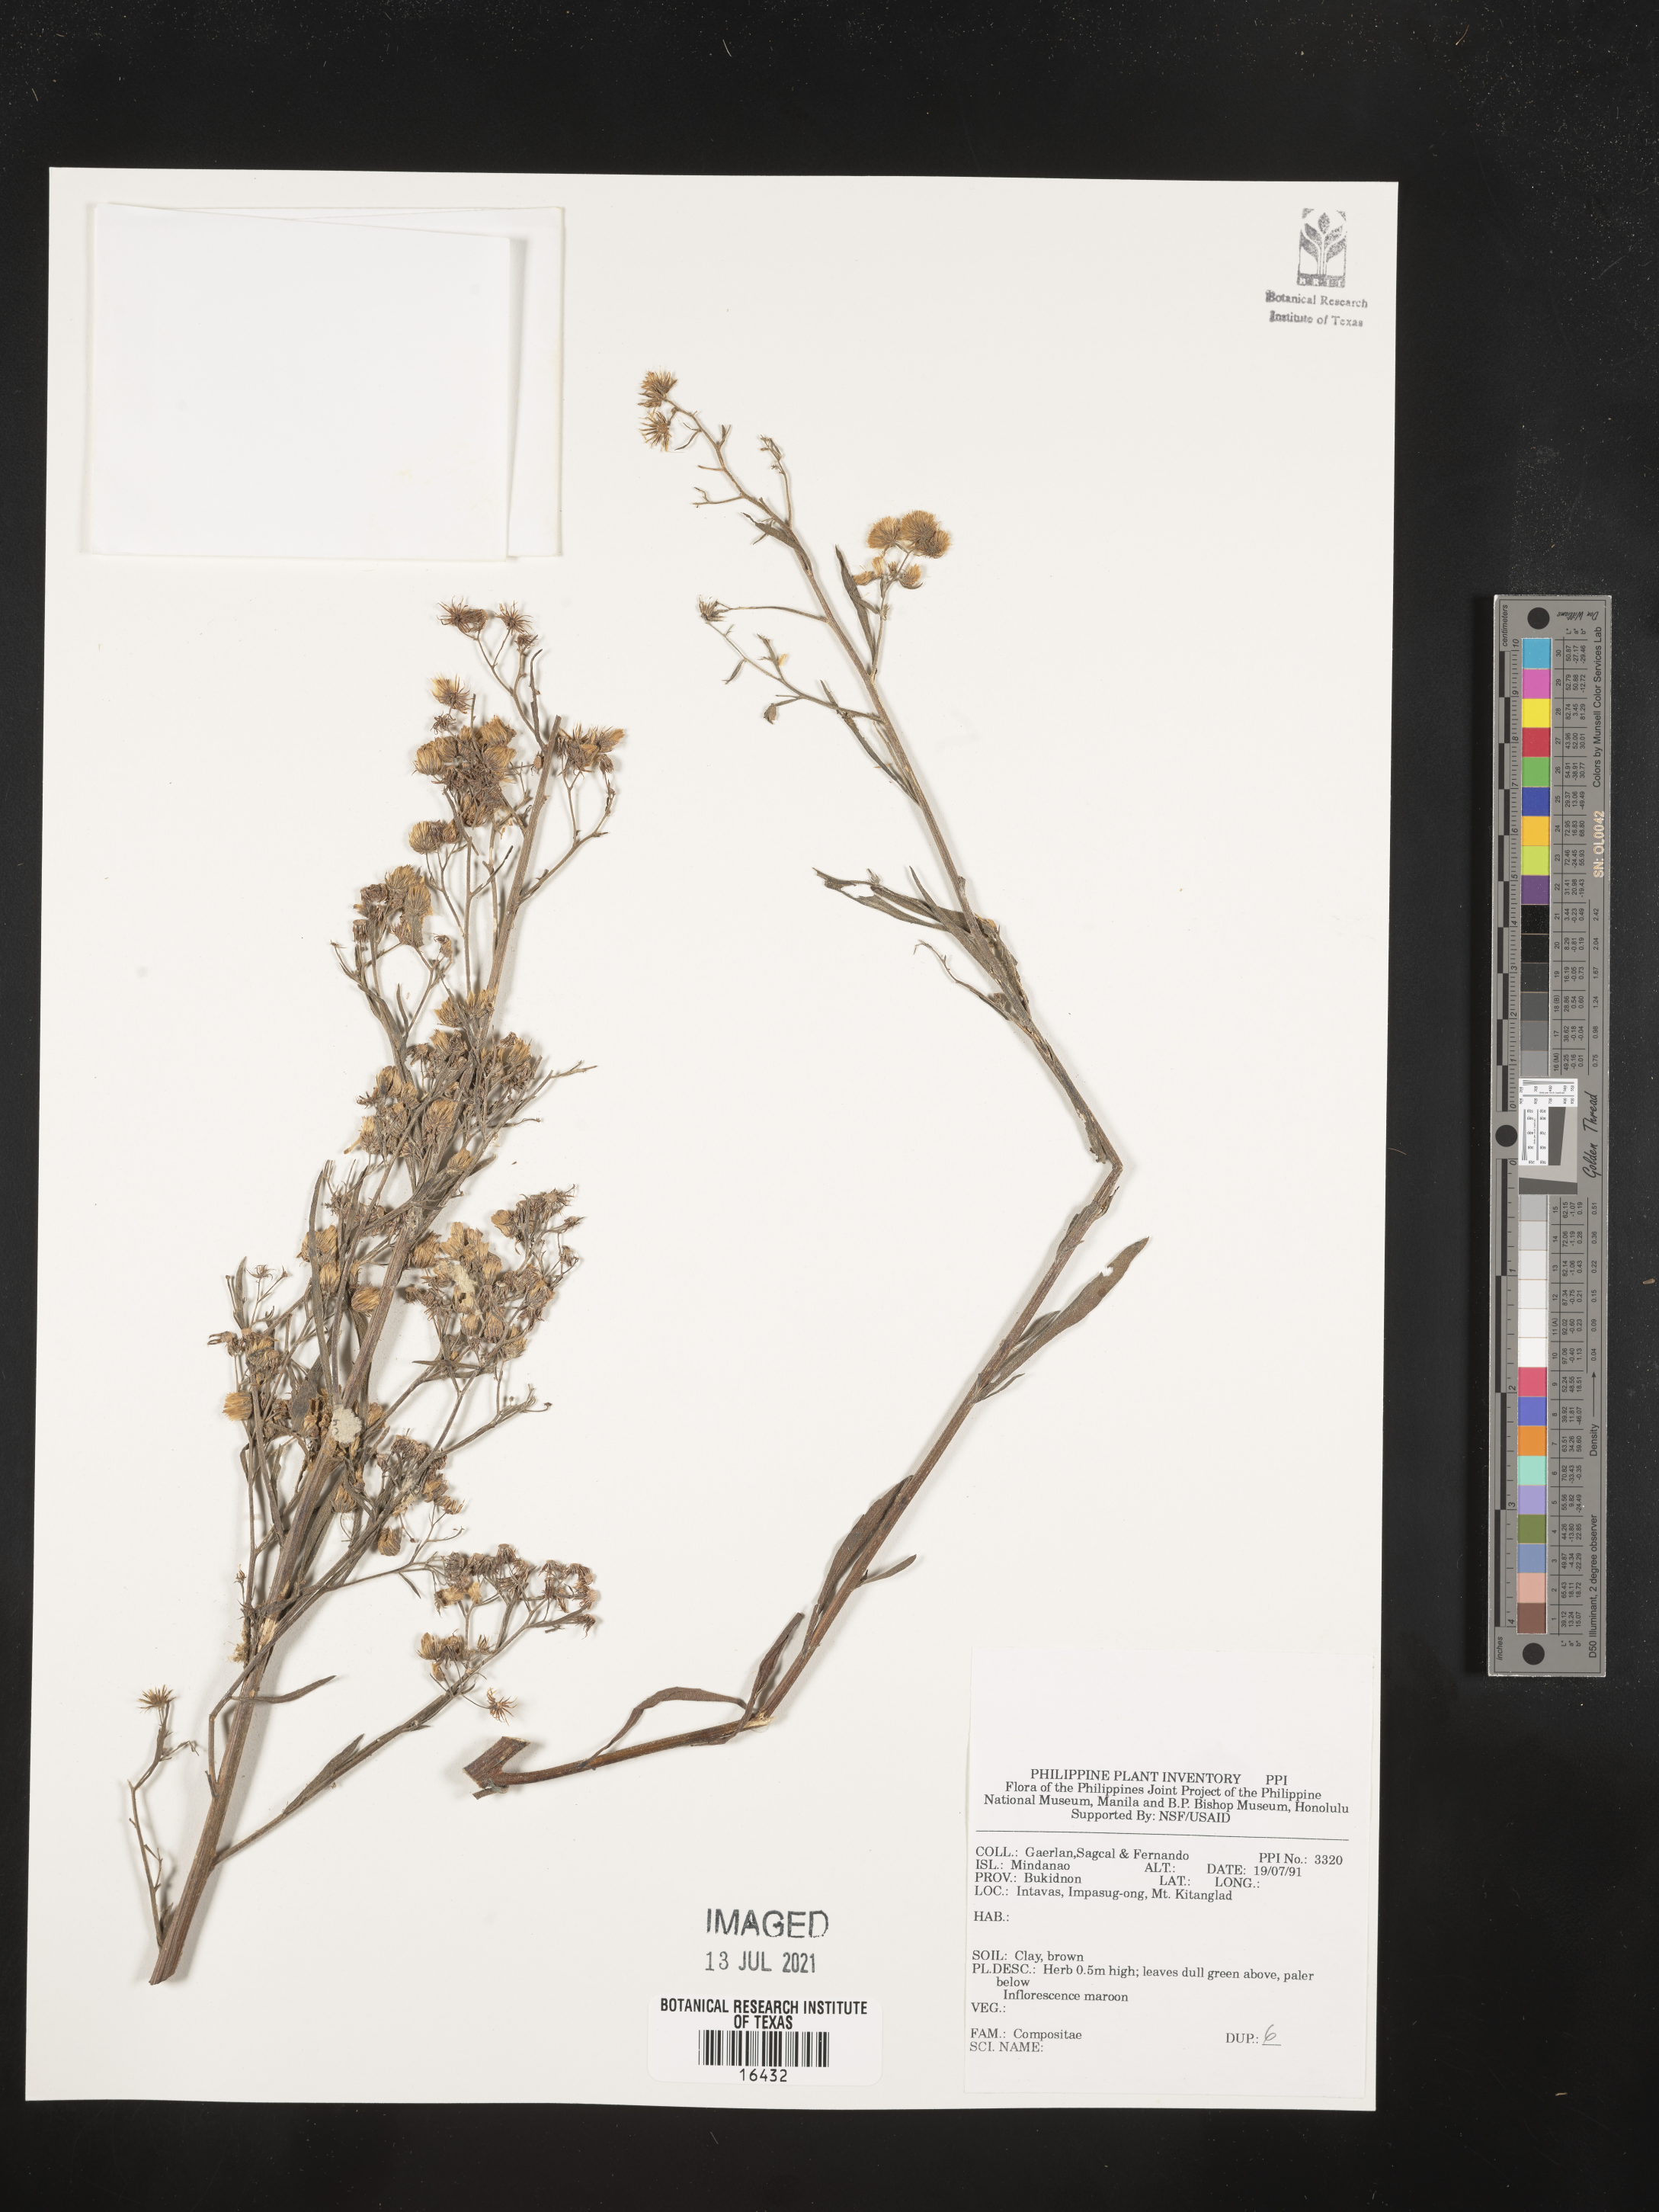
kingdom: Plantae
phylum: Tracheophyta
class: Magnoliopsida
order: Asterales
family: Asteraceae
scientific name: Asteraceae
